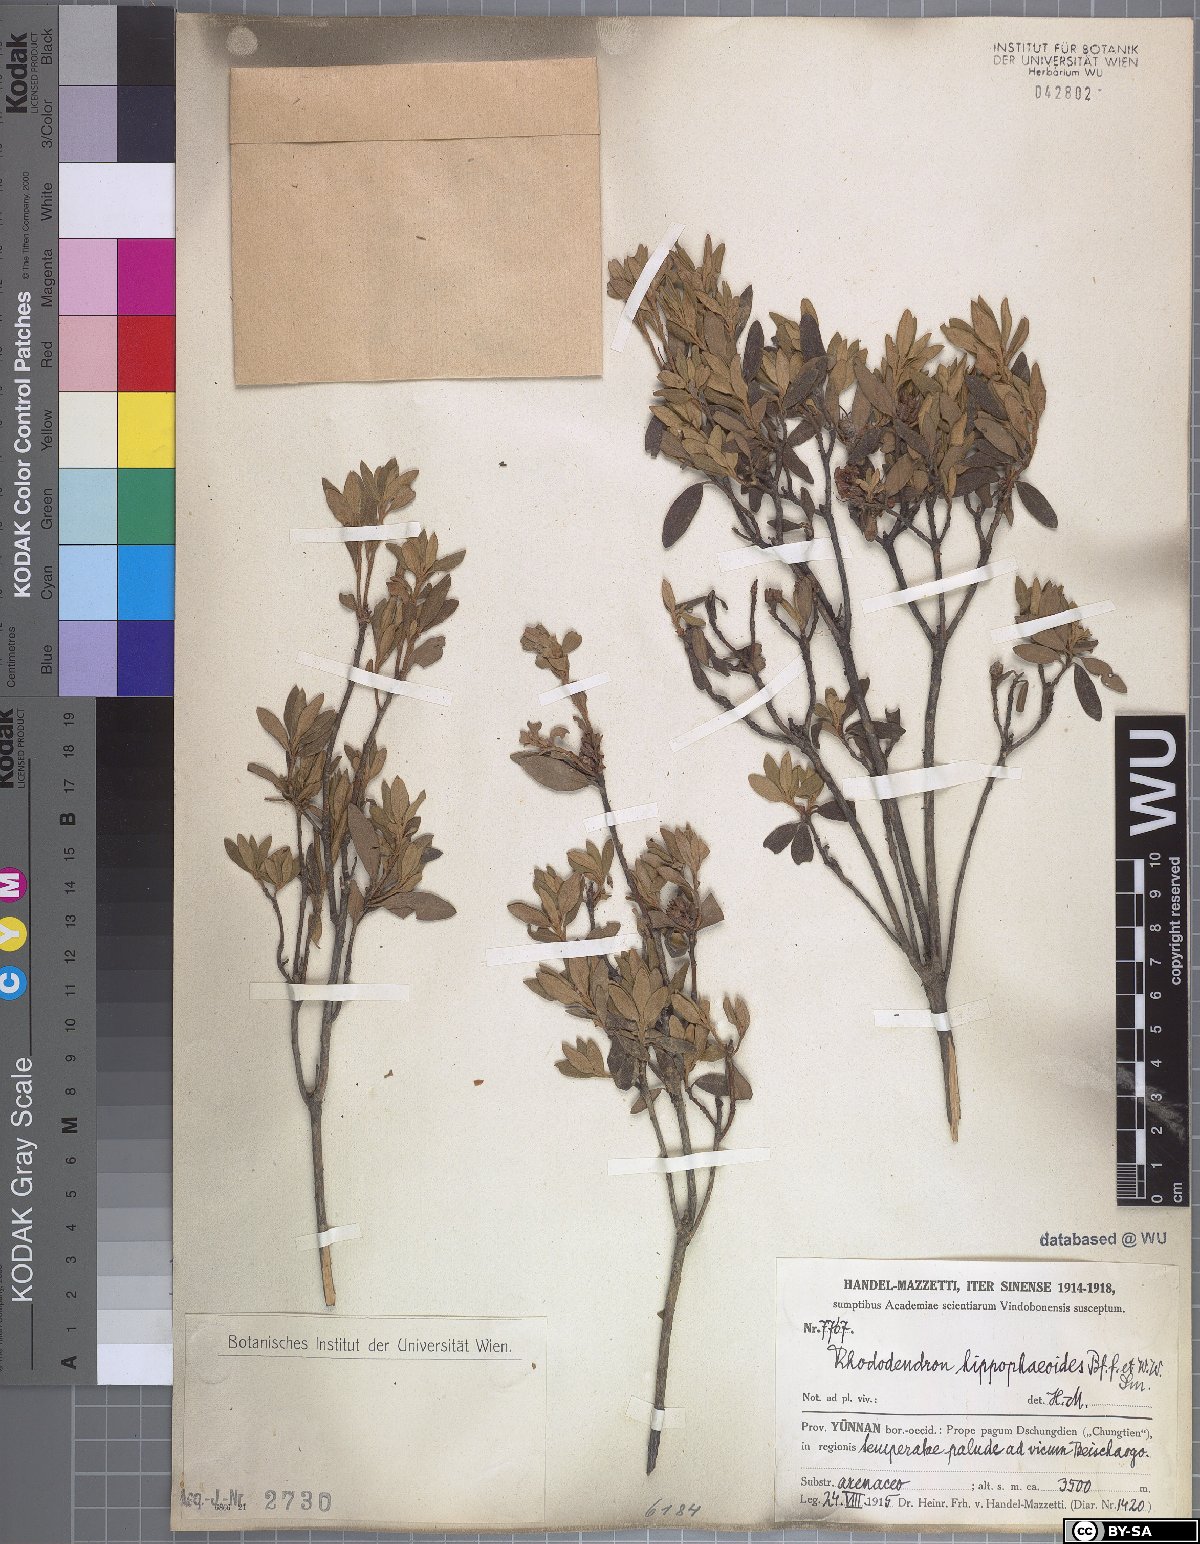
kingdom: Plantae
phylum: Tracheophyta
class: Magnoliopsida
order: Ericales
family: Ericaceae
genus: Rhododendron
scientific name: Rhododendron hippophaeoides
